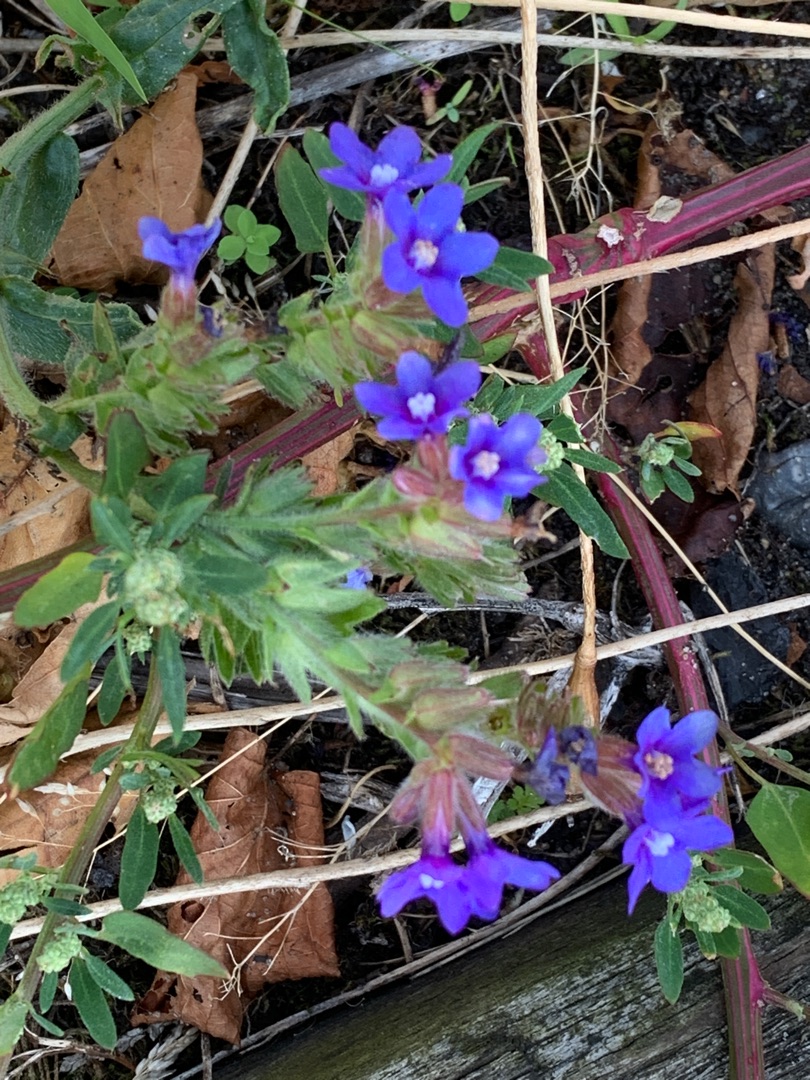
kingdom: Plantae
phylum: Tracheophyta
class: Magnoliopsida
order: Boraginales
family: Boraginaceae
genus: Anchusa
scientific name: Anchusa officinalis
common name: Læge-oksetunge
